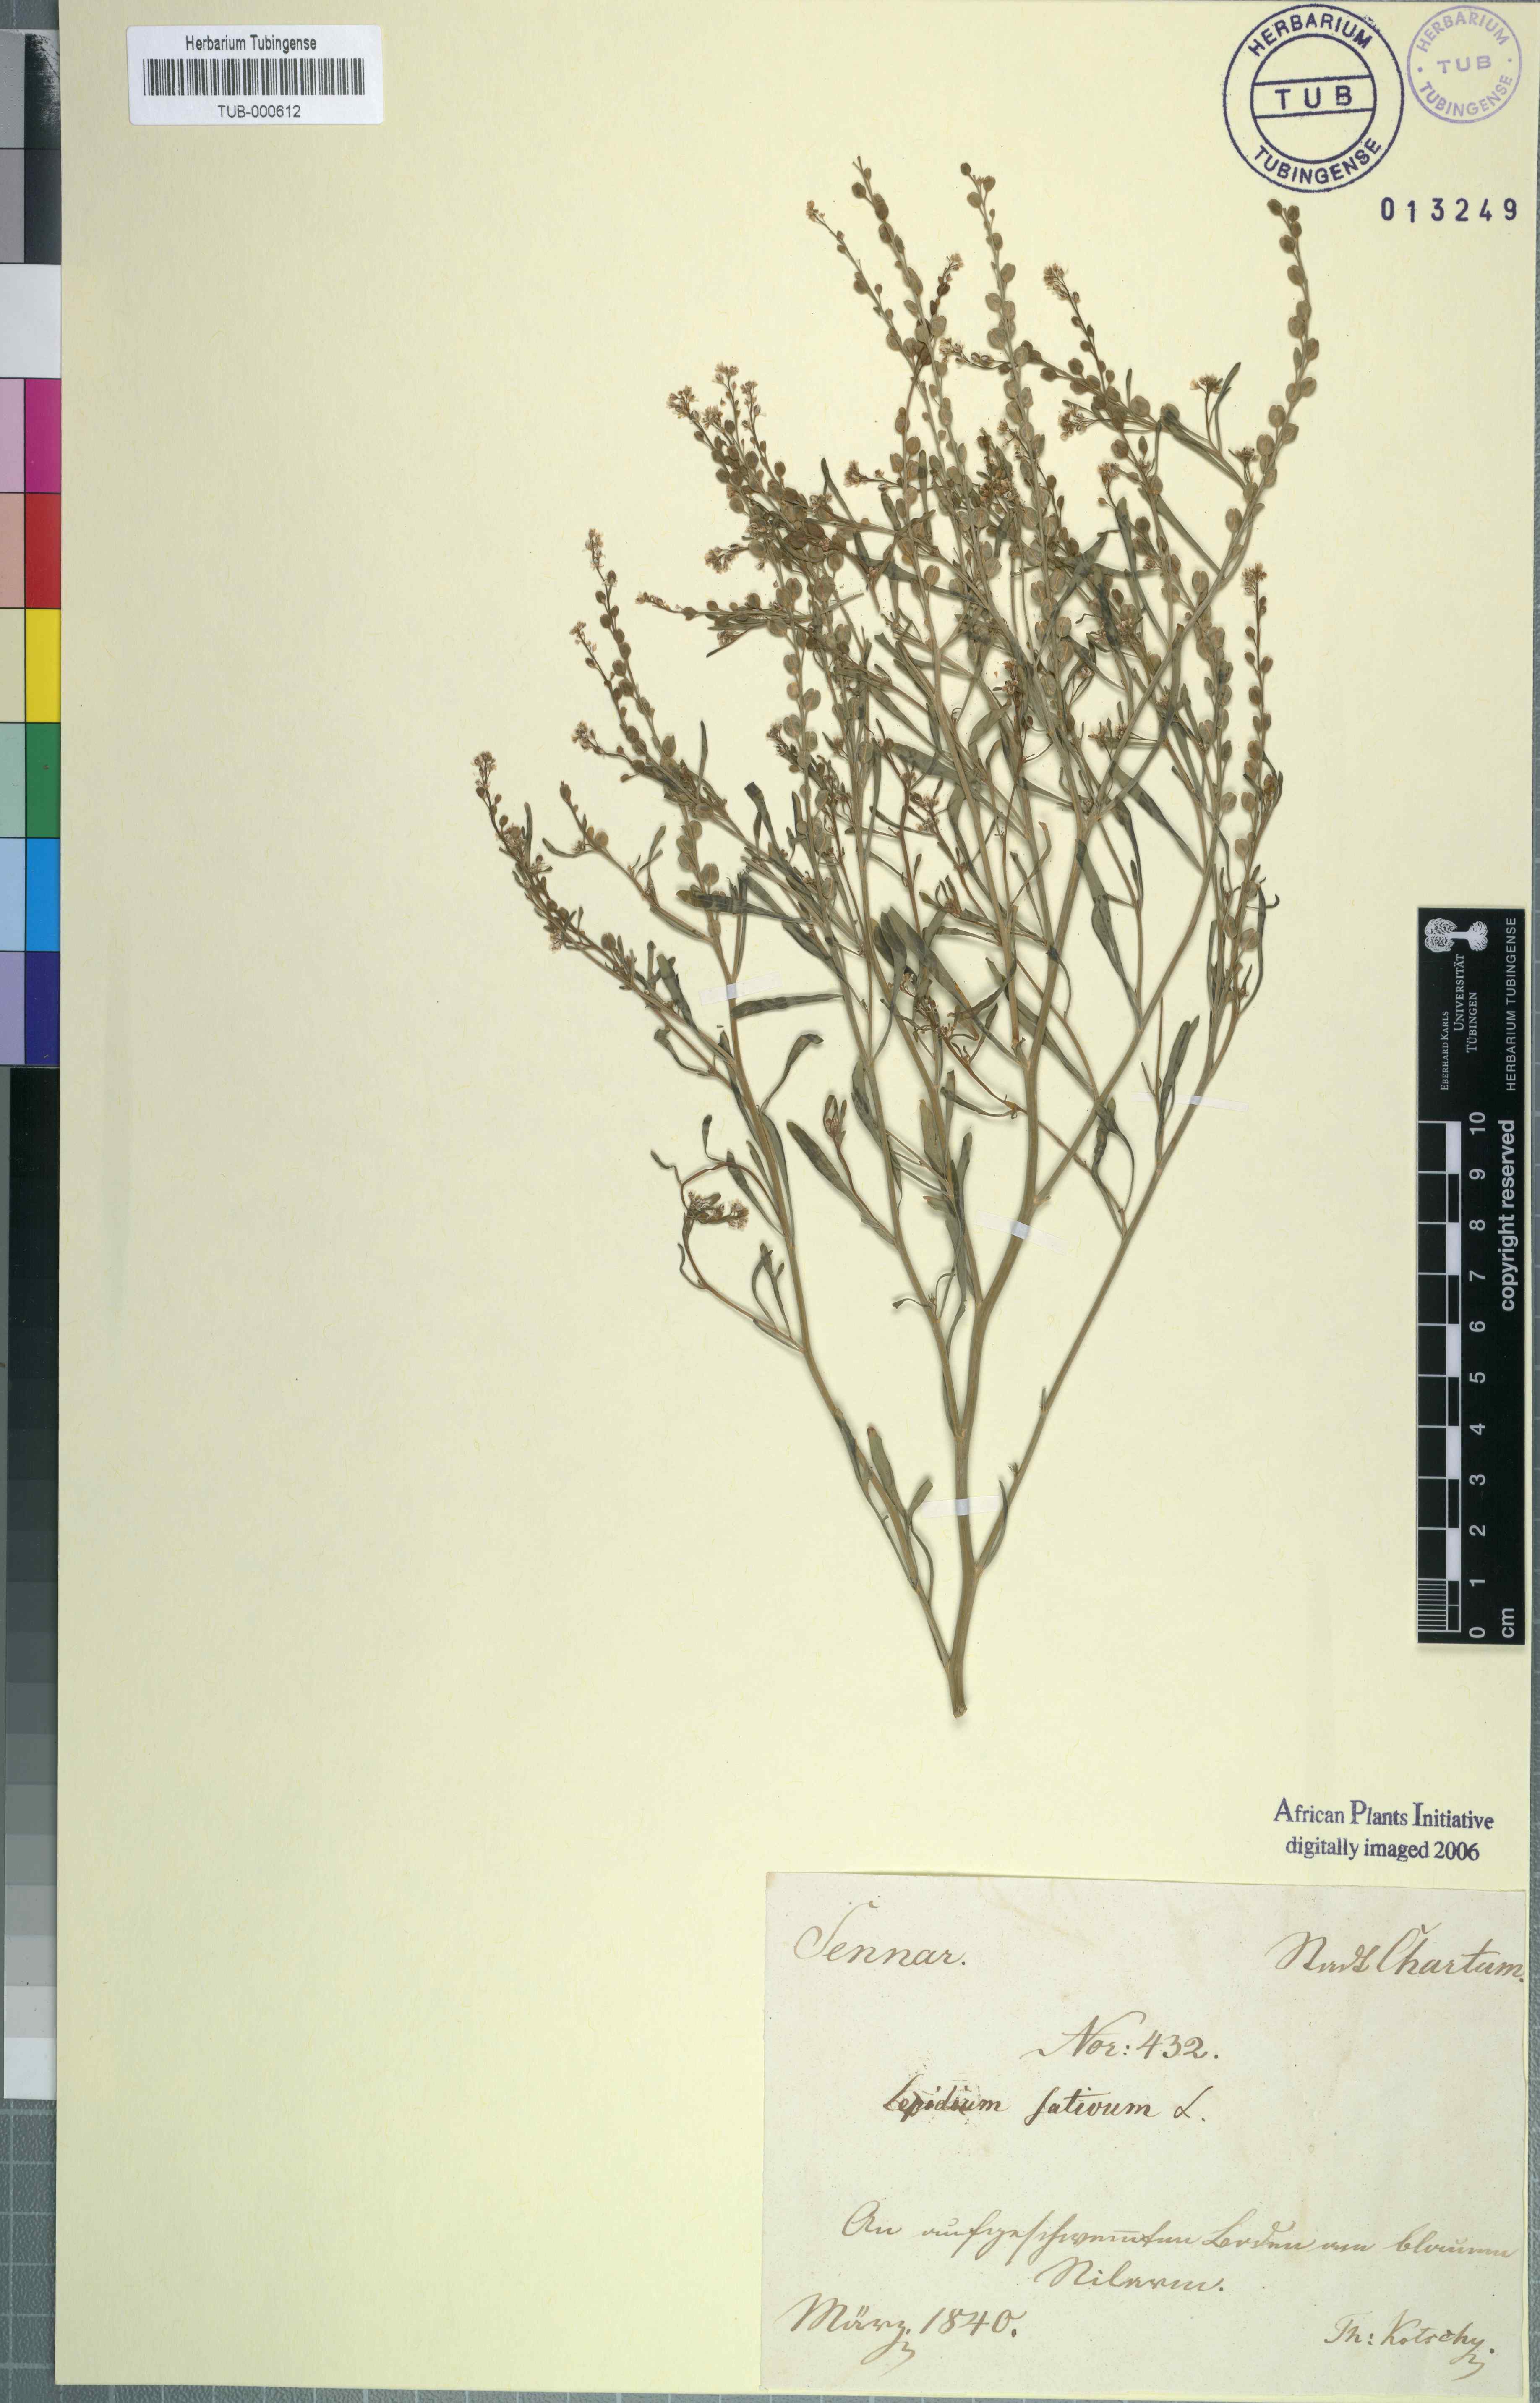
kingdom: Plantae
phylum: Tracheophyta
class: Magnoliopsida
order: Brassicales
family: Brassicaceae
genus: Lepidium
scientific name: Lepidium sativum
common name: Garden cress
